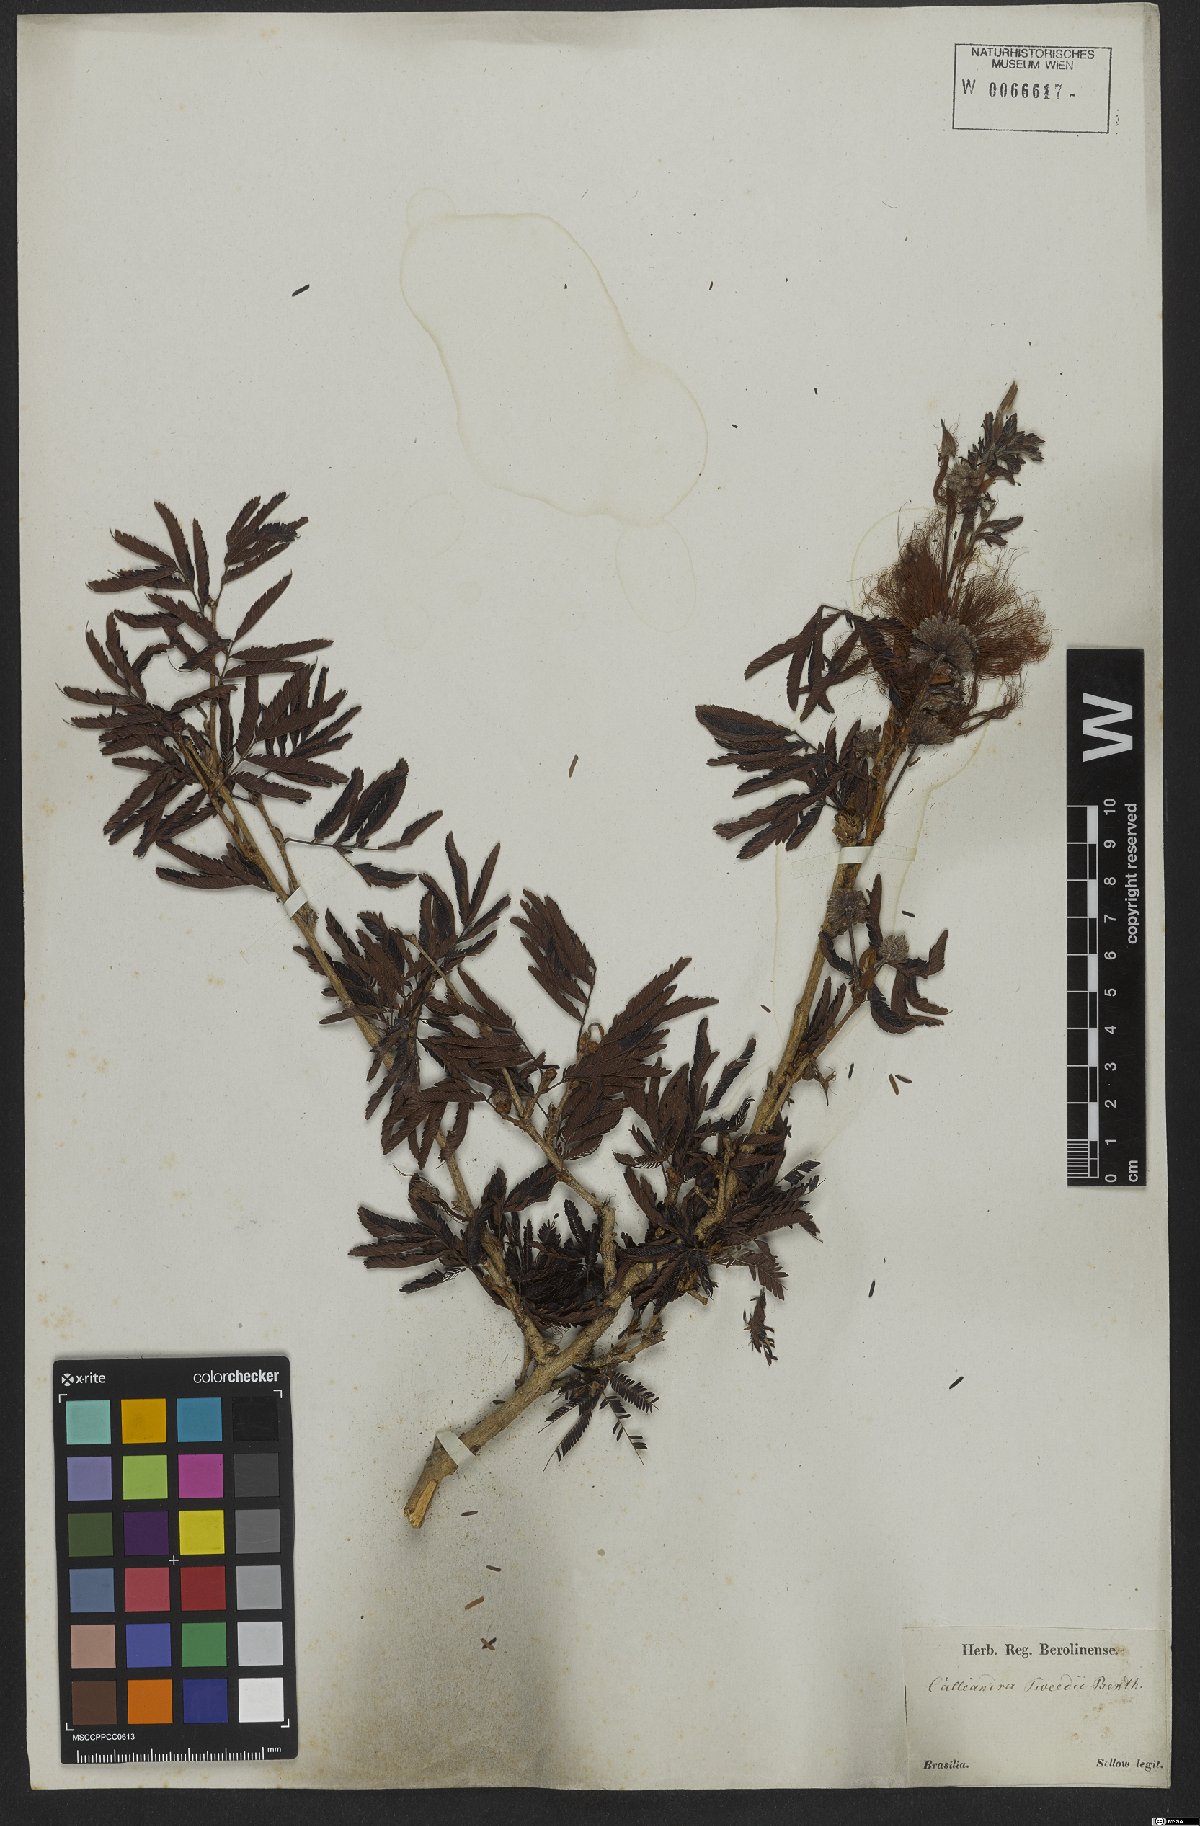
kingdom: Plantae
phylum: Tracheophyta
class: Magnoliopsida
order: Fabales
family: Fabaceae
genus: Calliandra
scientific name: Calliandra tweedii
